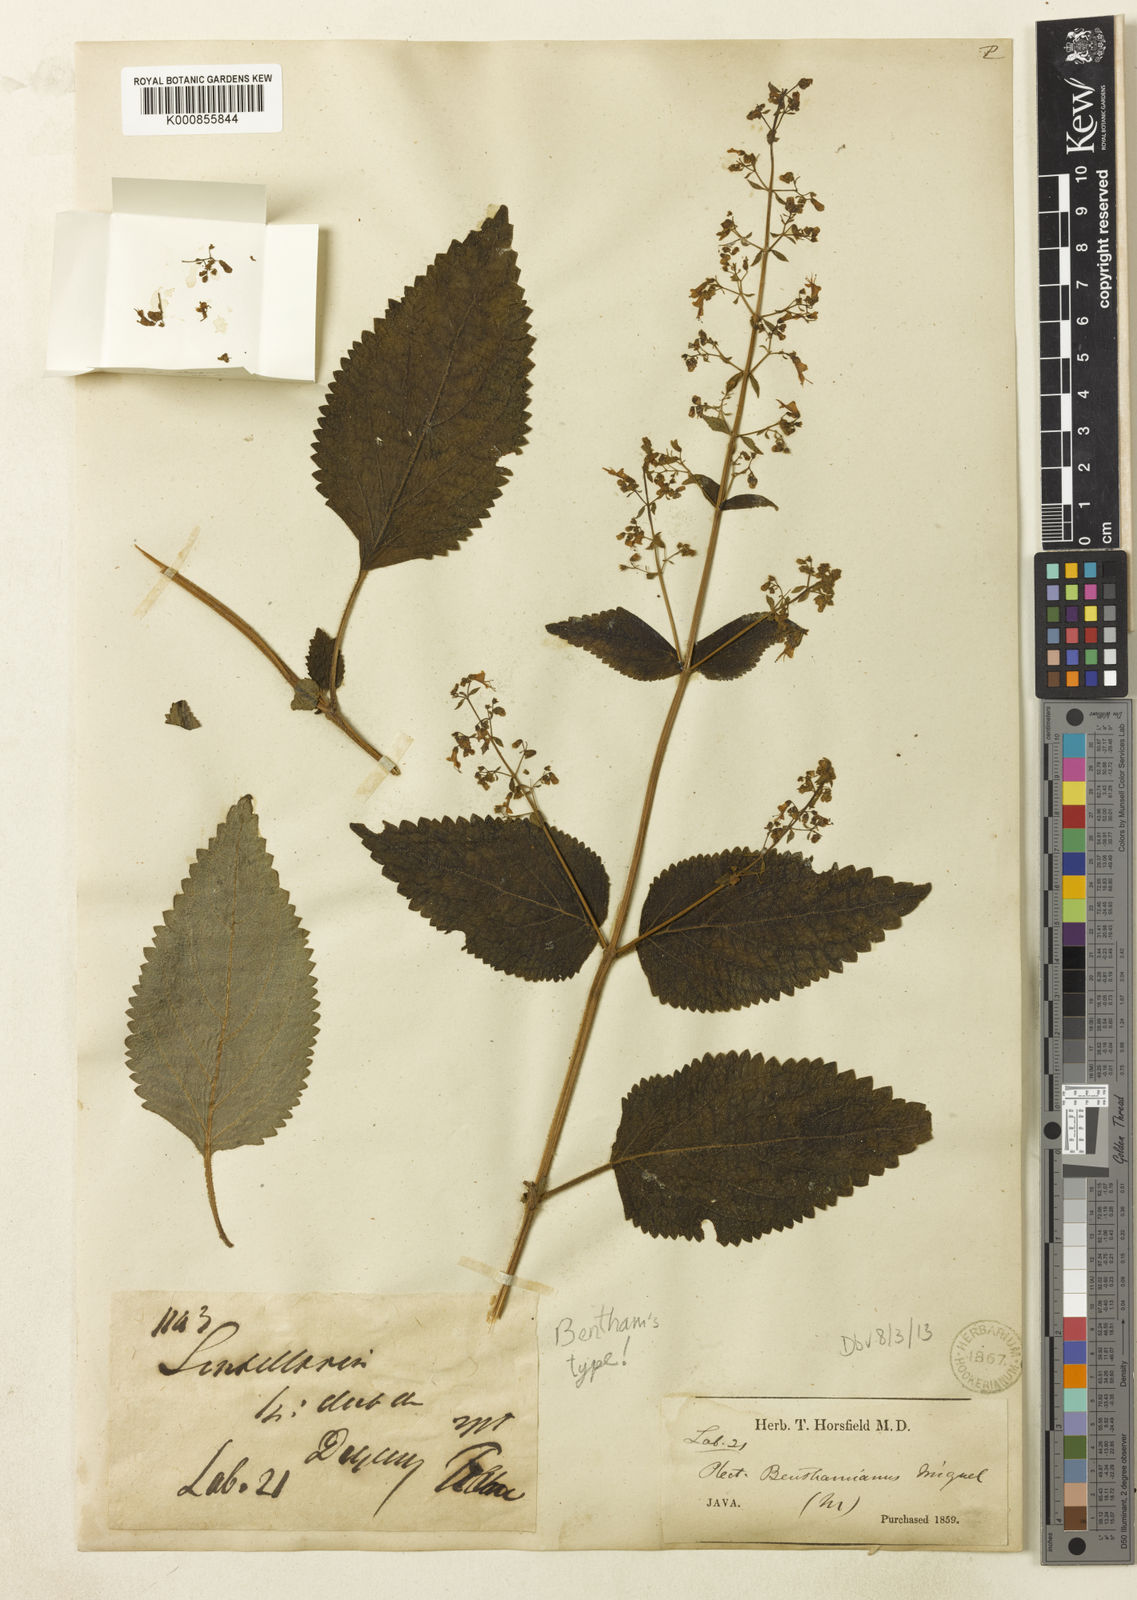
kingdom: Plantae
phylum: Tracheophyta
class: Magnoliopsida
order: Lamiales
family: Lamiaceae
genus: Isodon
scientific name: Isodon teysmannii
